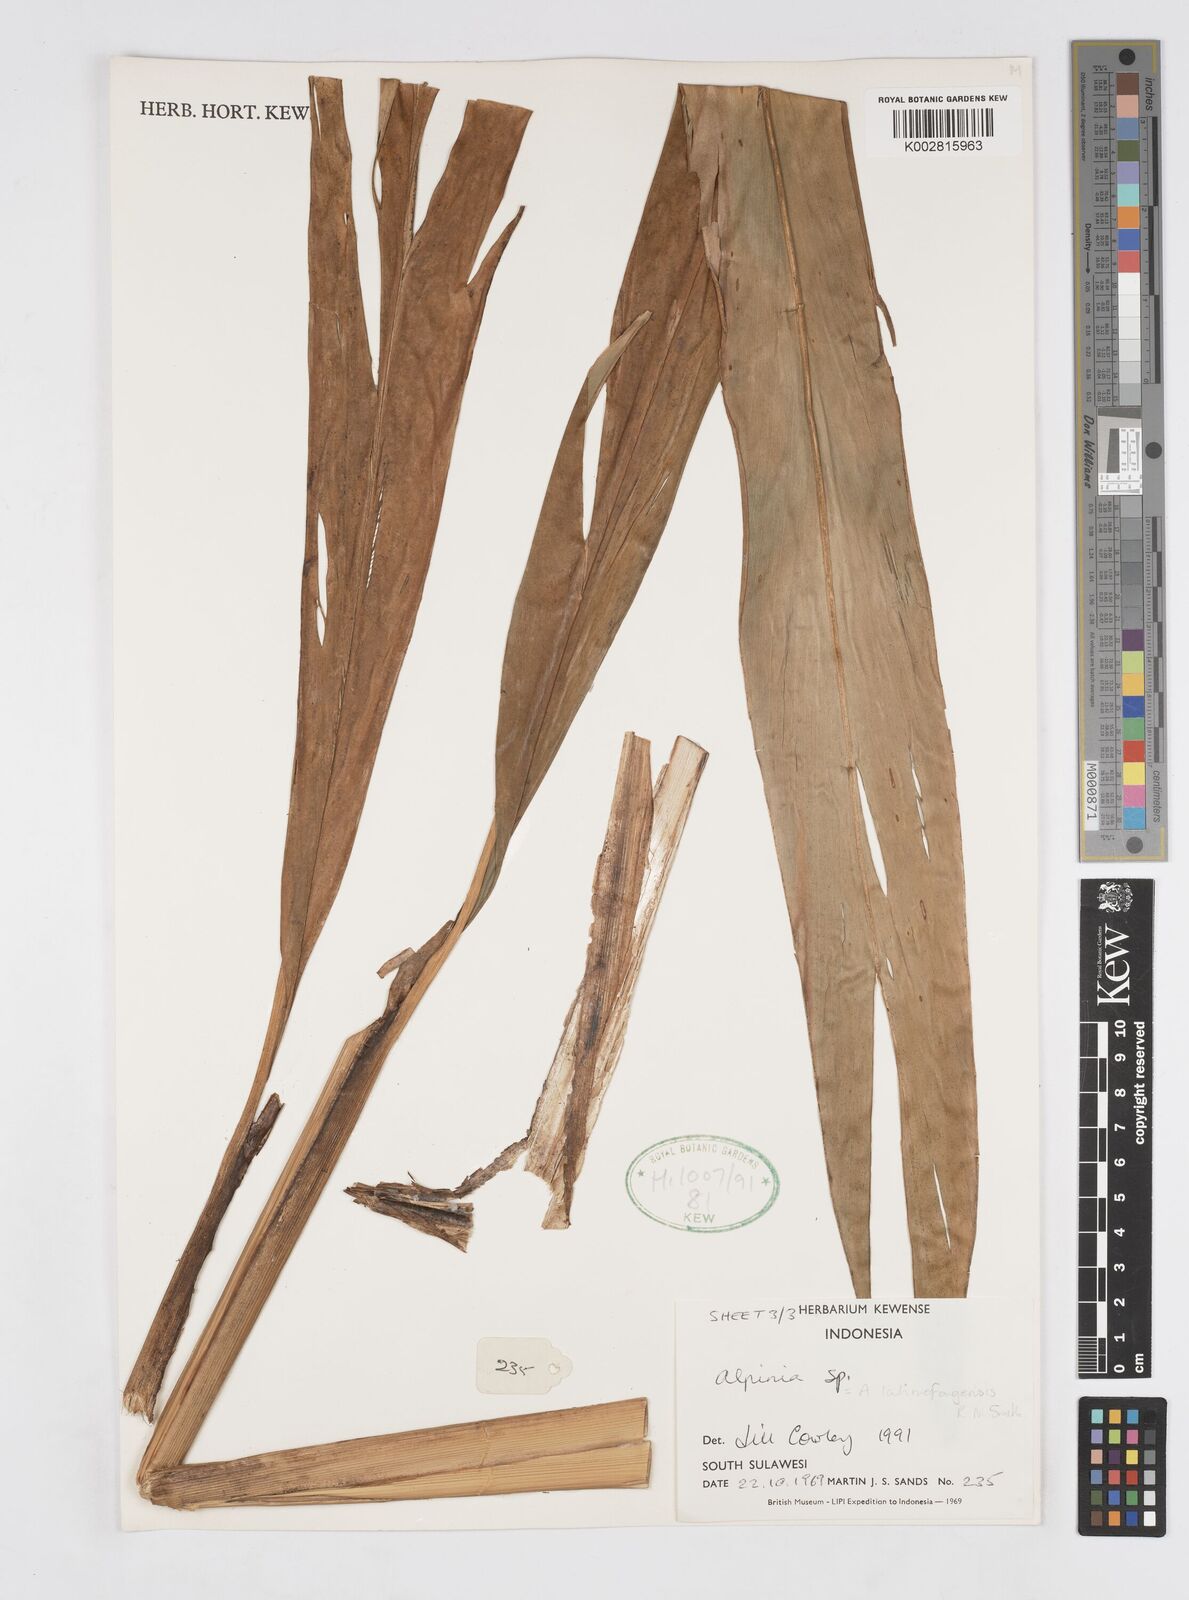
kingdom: Plantae
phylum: Tracheophyta
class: Liliopsida
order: Zingiberales
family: Zingiberaceae
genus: Alpinia
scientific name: Alpinia
